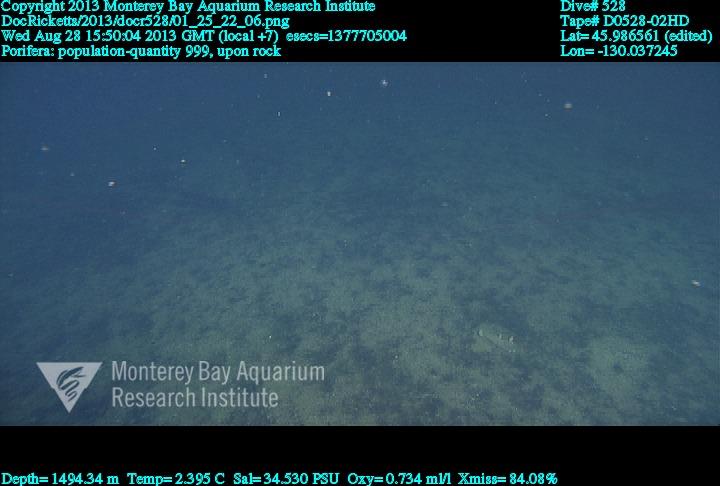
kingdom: Animalia
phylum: Porifera
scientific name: Porifera
